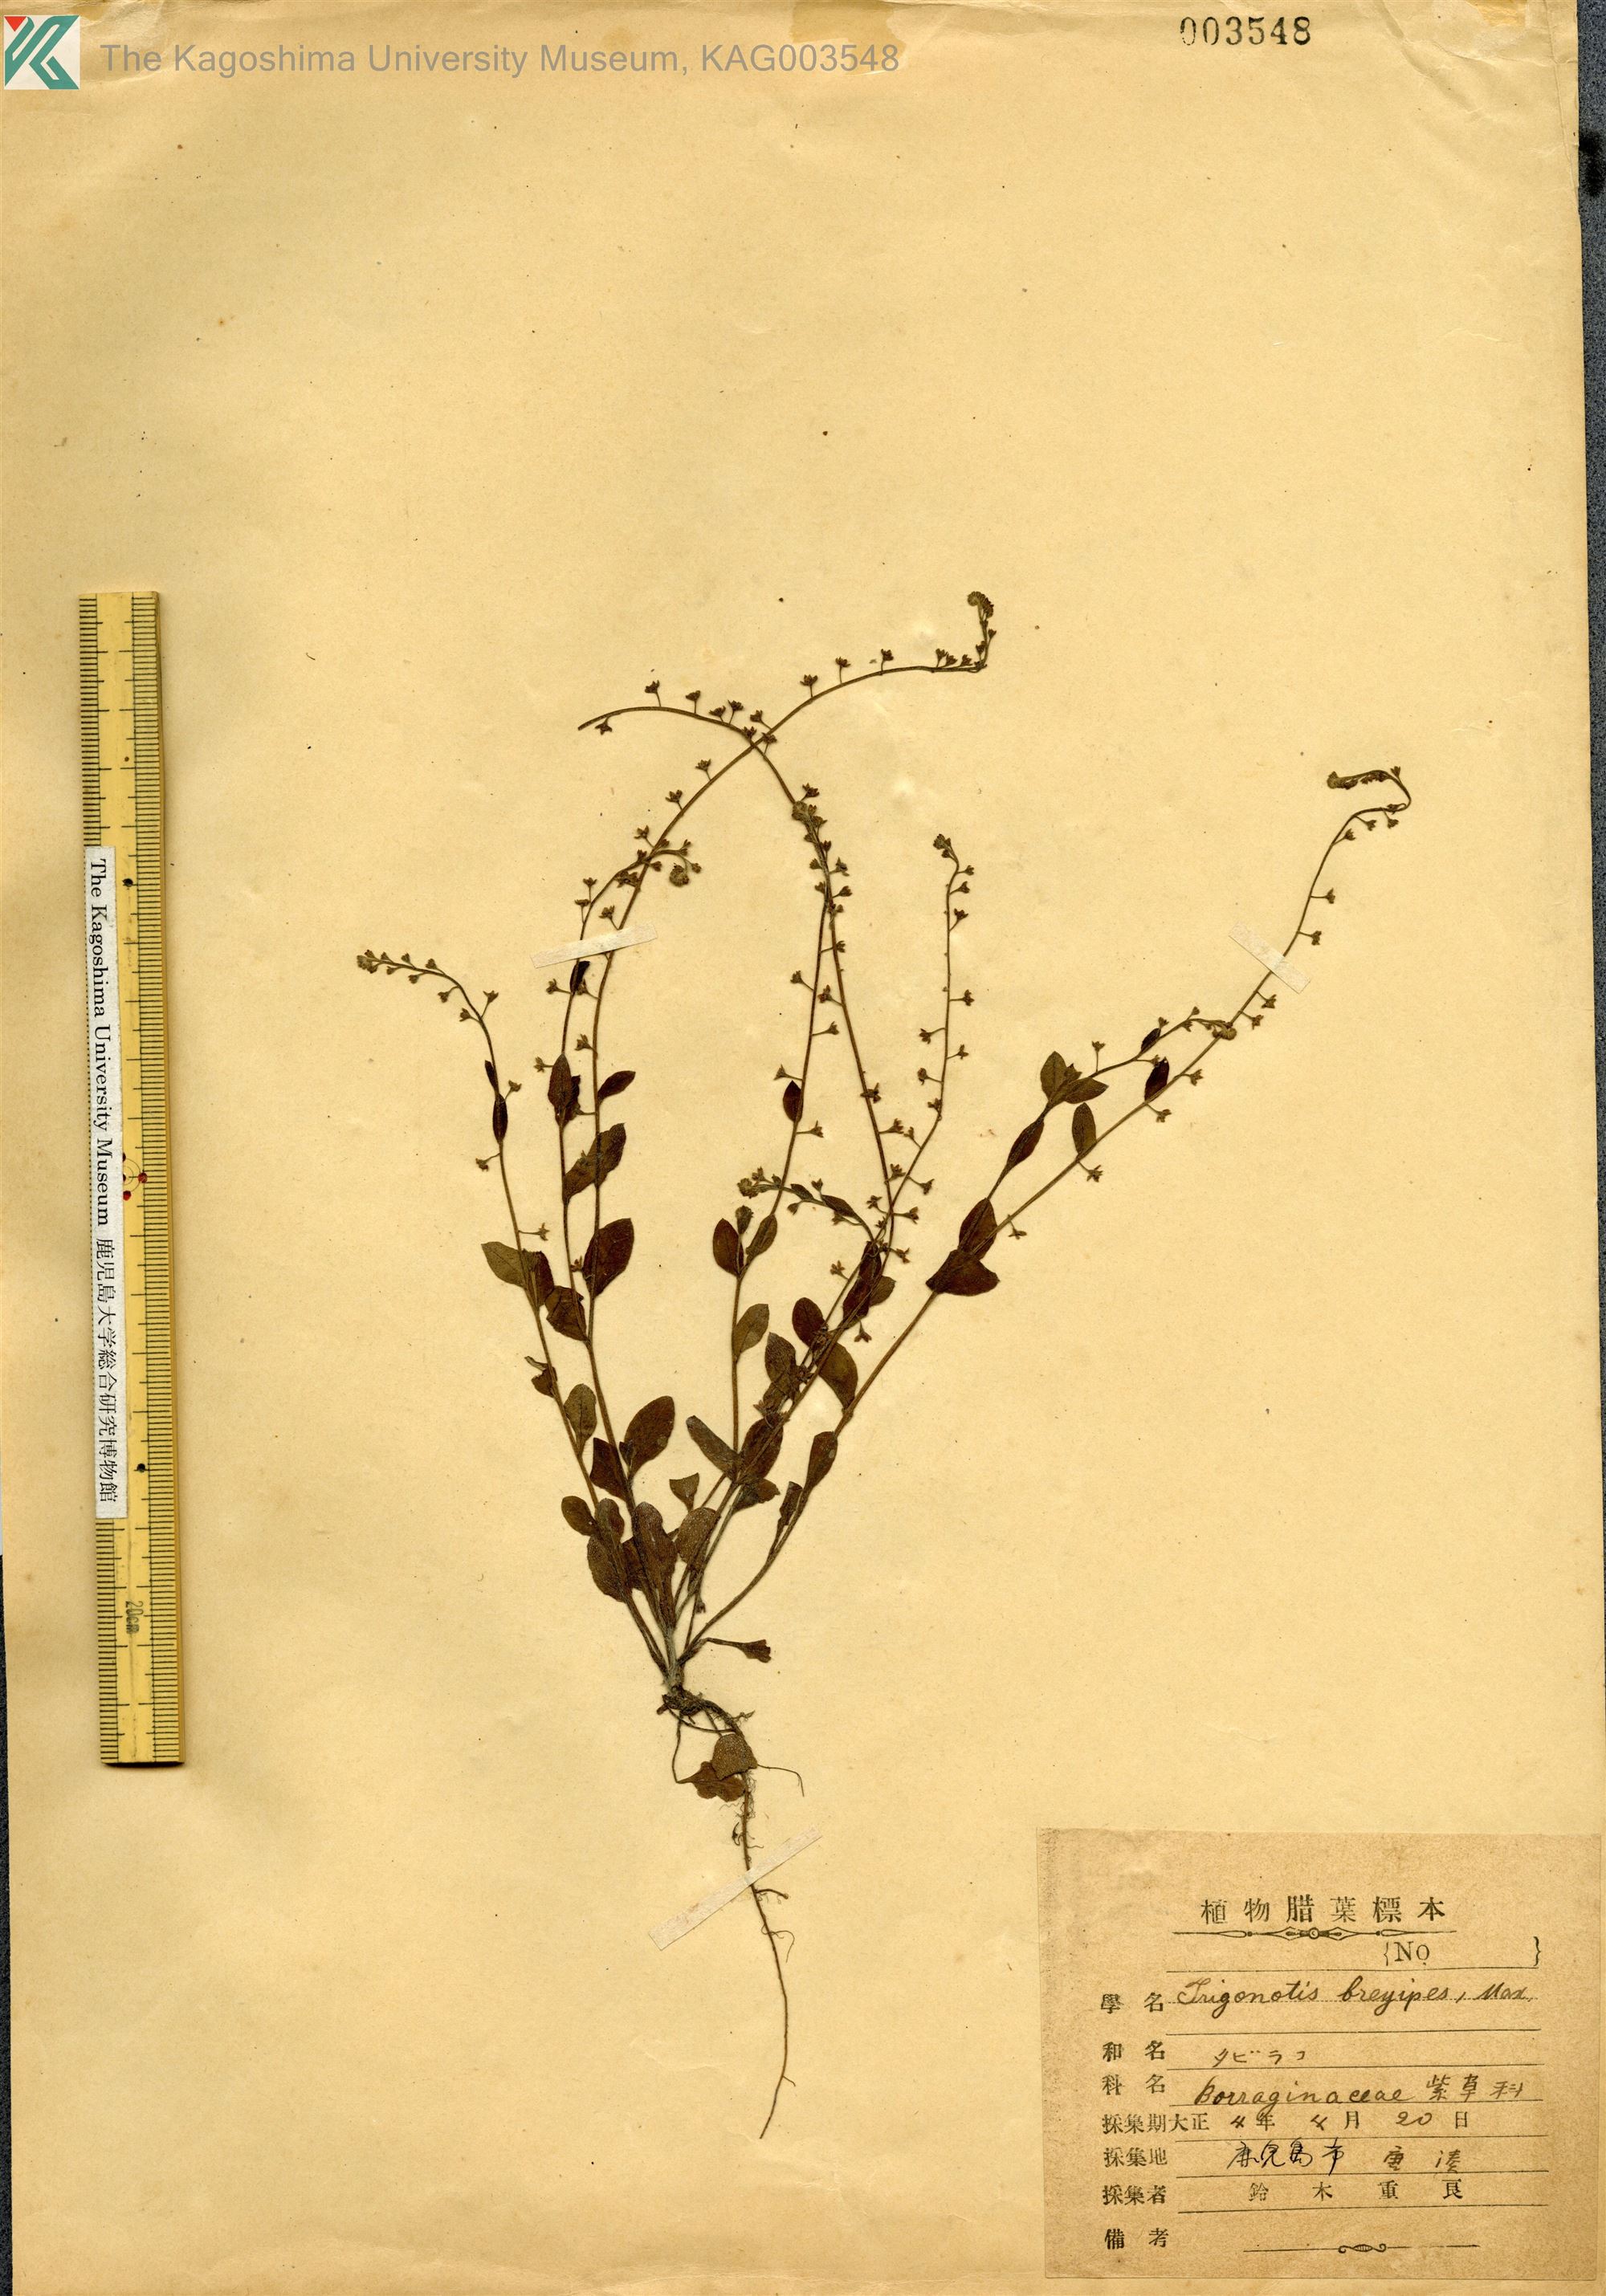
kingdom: Plantae
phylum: Tracheophyta
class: Magnoliopsida
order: Boraginales
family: Boraginaceae
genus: Trigonotis
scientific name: Trigonotis peduncularis
